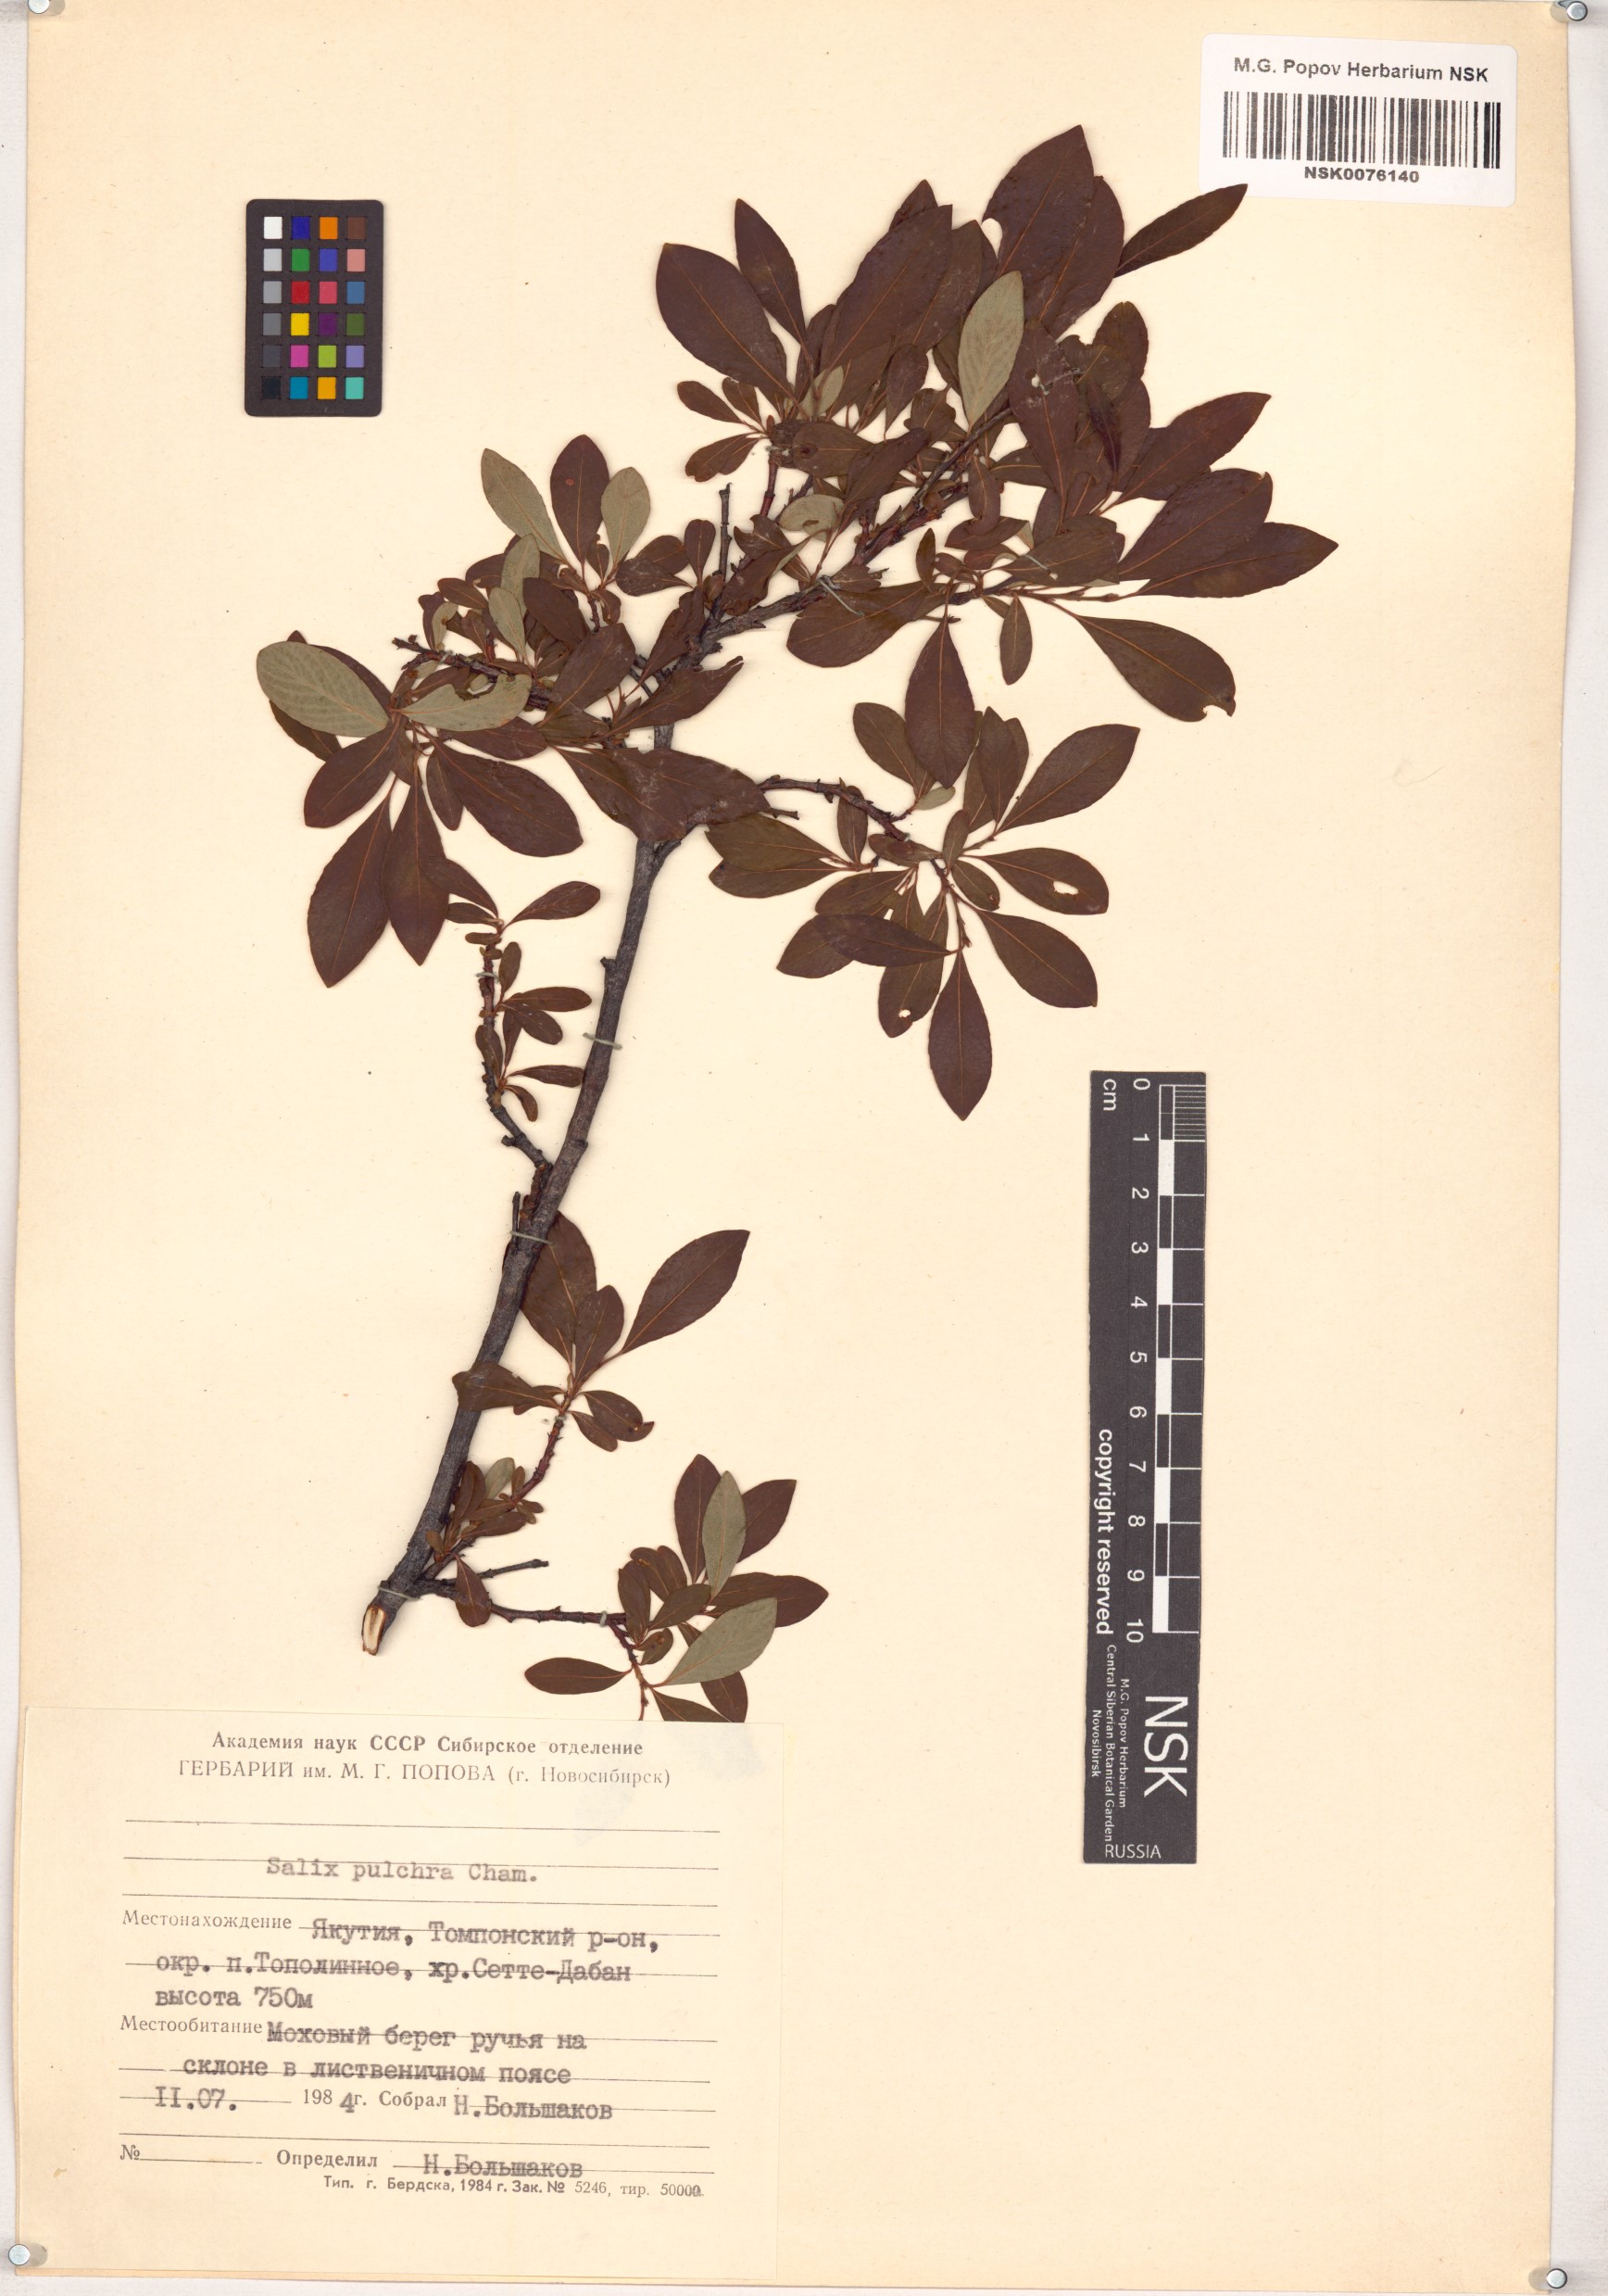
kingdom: Plantae
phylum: Tracheophyta
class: Magnoliopsida
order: Malpighiales
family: Salicaceae
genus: Salix
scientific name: Salix pulchra
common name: Diamond-leaved willow
